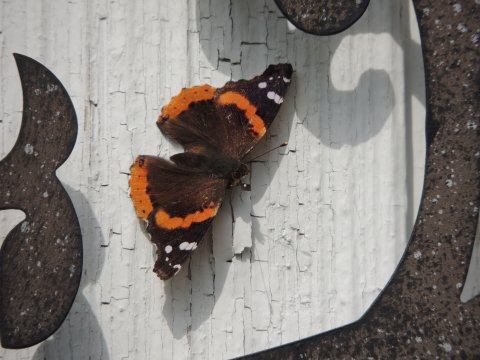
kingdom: Animalia
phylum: Arthropoda
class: Insecta
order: Lepidoptera
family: Nymphalidae
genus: Vanessa
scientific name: Vanessa atalanta
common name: Red Admiral
